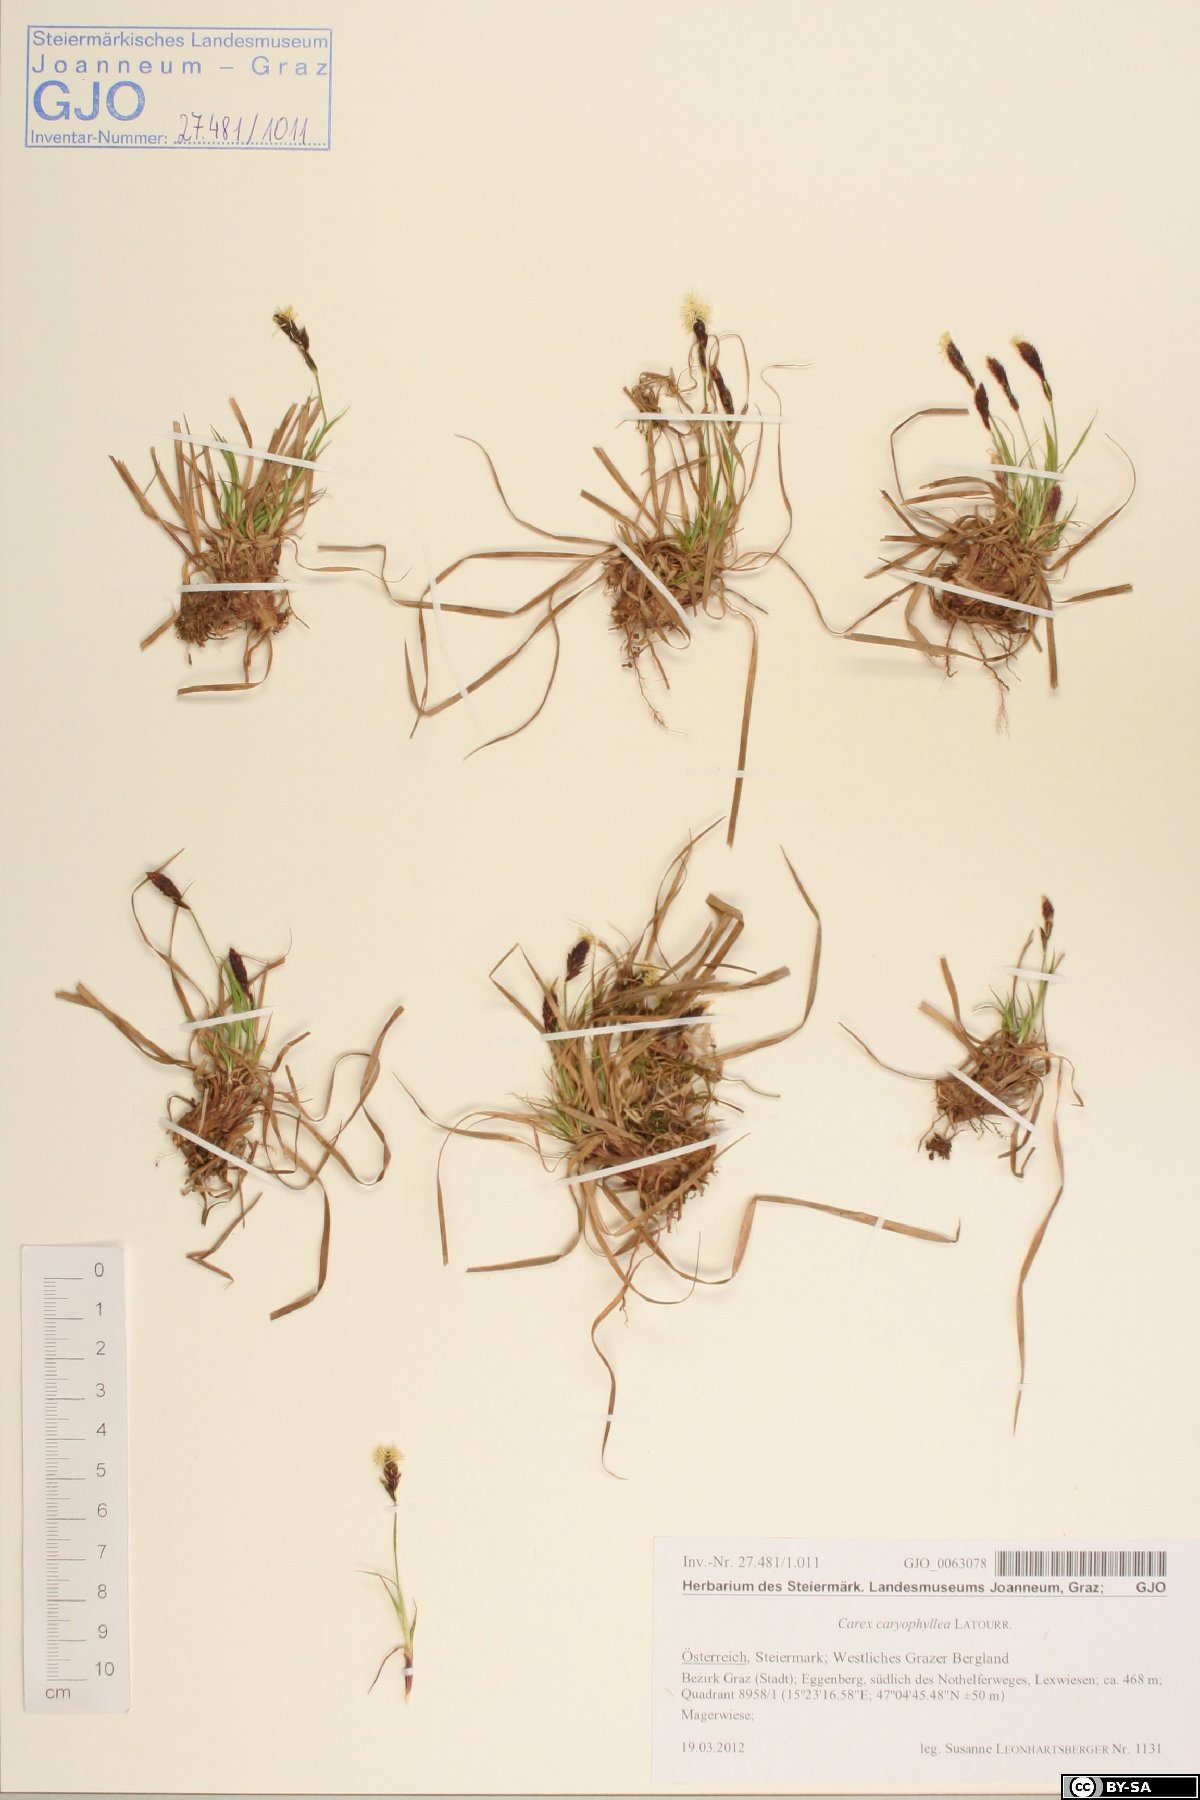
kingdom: Plantae
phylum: Tracheophyta
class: Liliopsida
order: Poales
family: Cyperaceae
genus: Carex
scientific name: Carex caryophyllea
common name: Spring sedge
